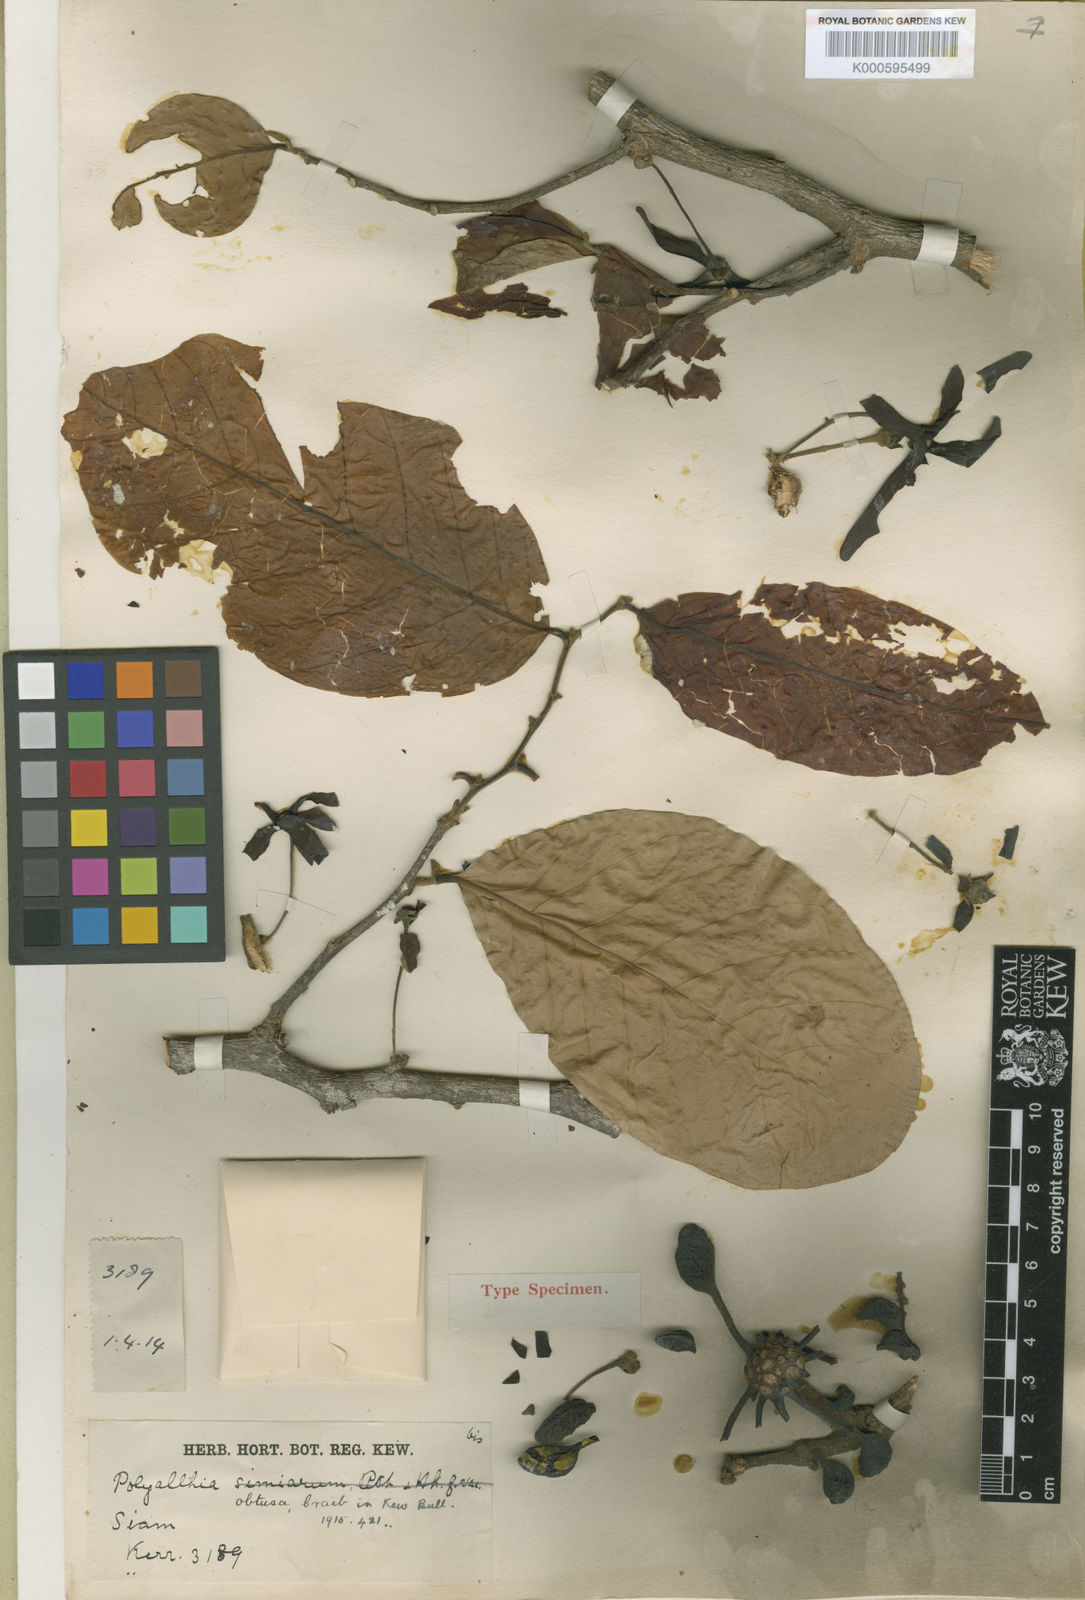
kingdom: Plantae
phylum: Tracheophyta
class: Magnoliopsida
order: Magnoliales
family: Annonaceae
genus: Polyalthia
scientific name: Polyalthia obtusa
